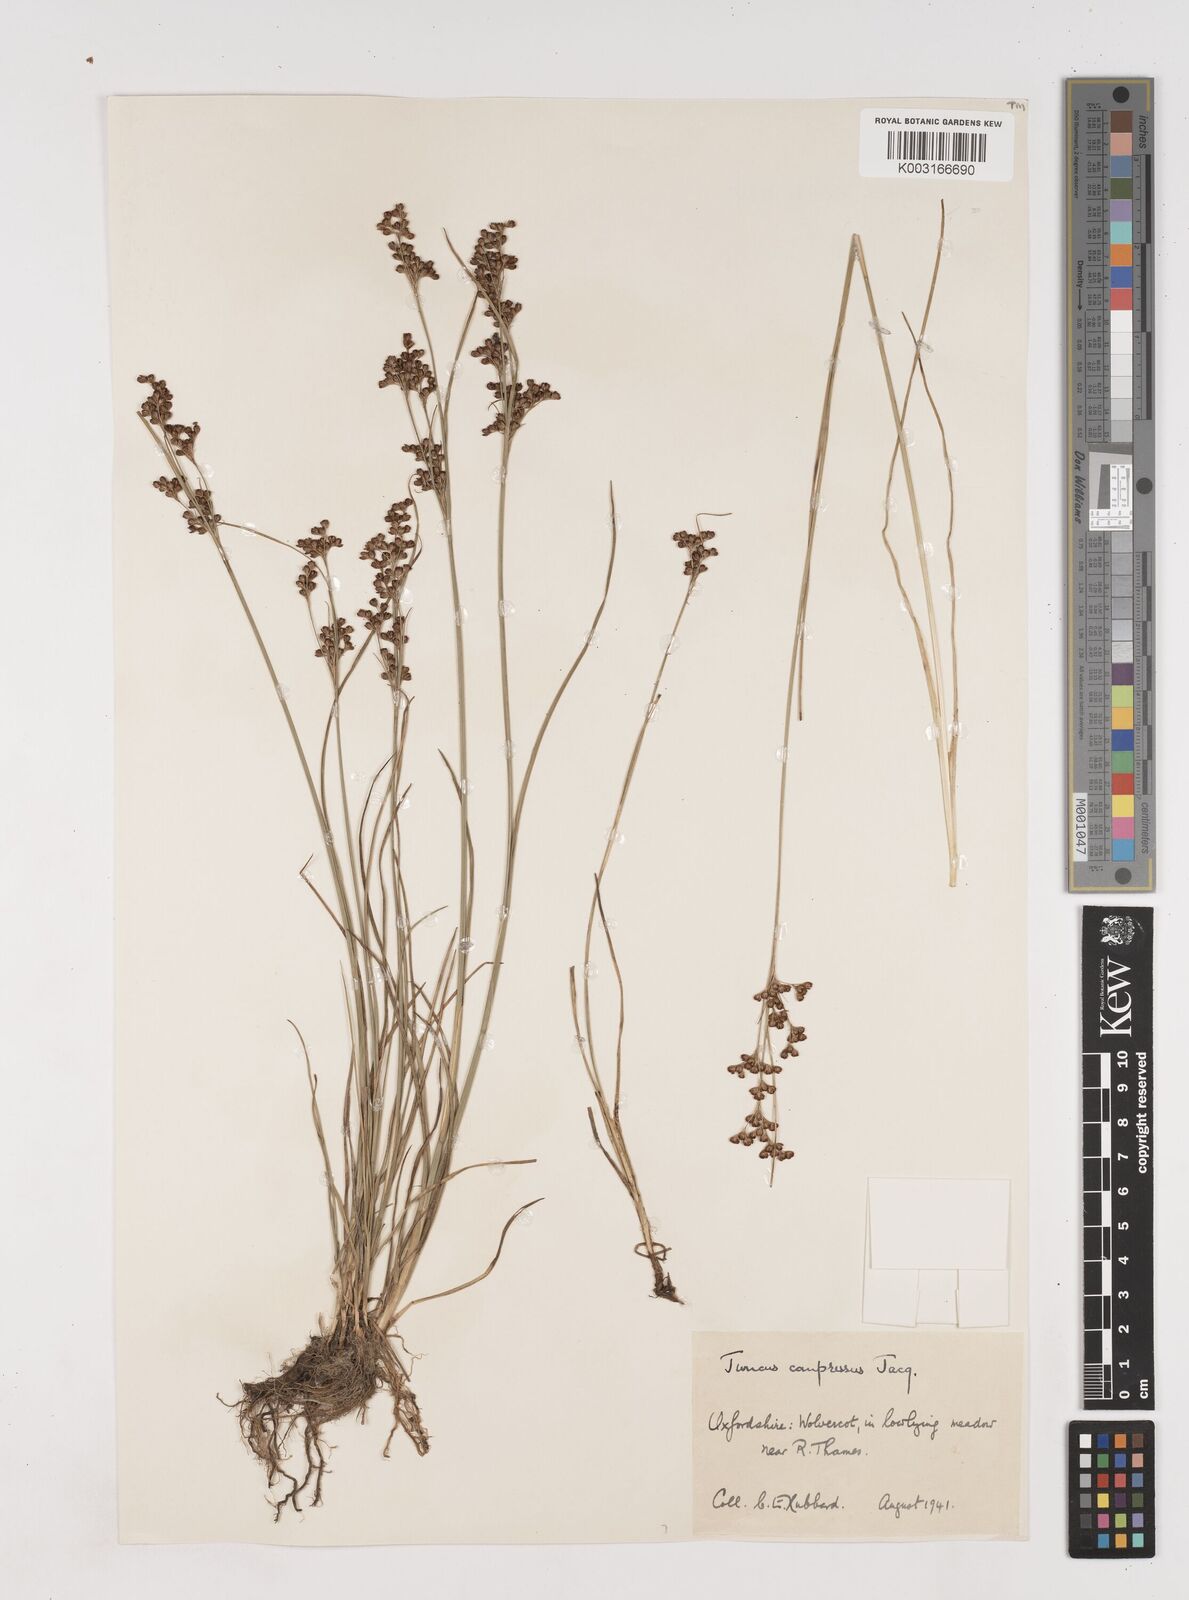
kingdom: Plantae
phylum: Tracheophyta
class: Liliopsida
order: Poales
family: Juncaceae
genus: Juncus
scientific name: Juncus compressus
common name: Round-fruited rush
